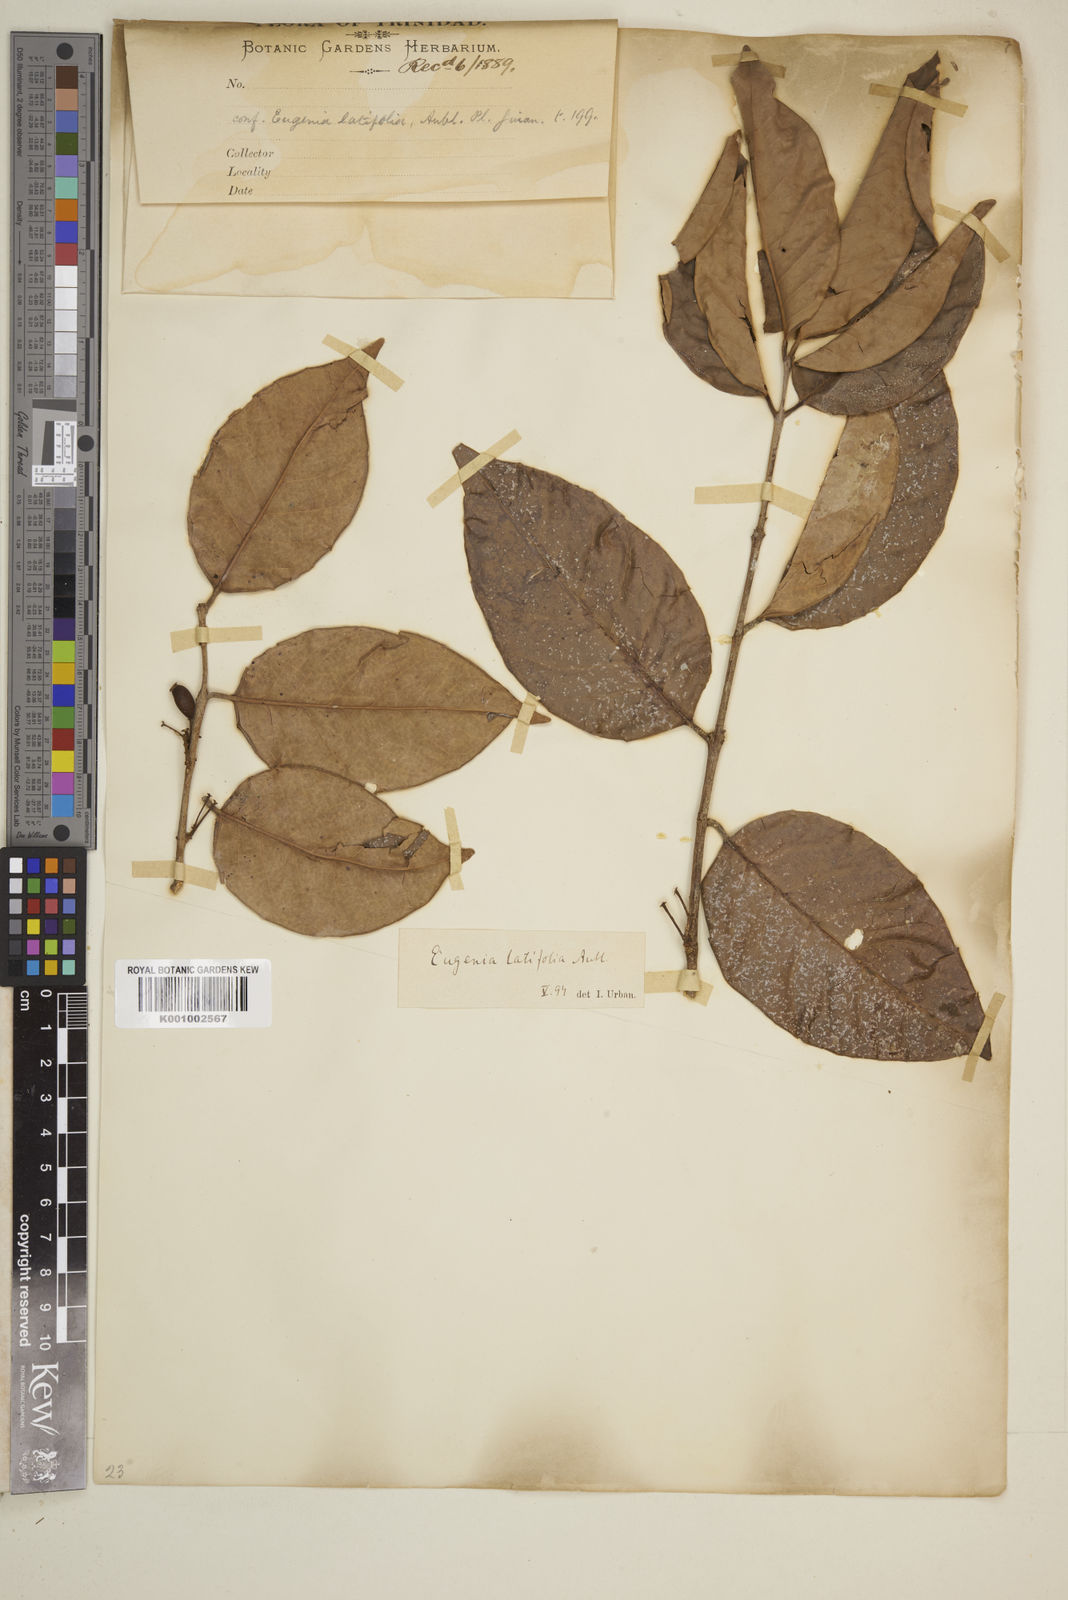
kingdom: Plantae
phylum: Tracheophyta
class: Magnoliopsida
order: Myrtales
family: Myrtaceae
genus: Eugenia
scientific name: Eugenia latifolia
